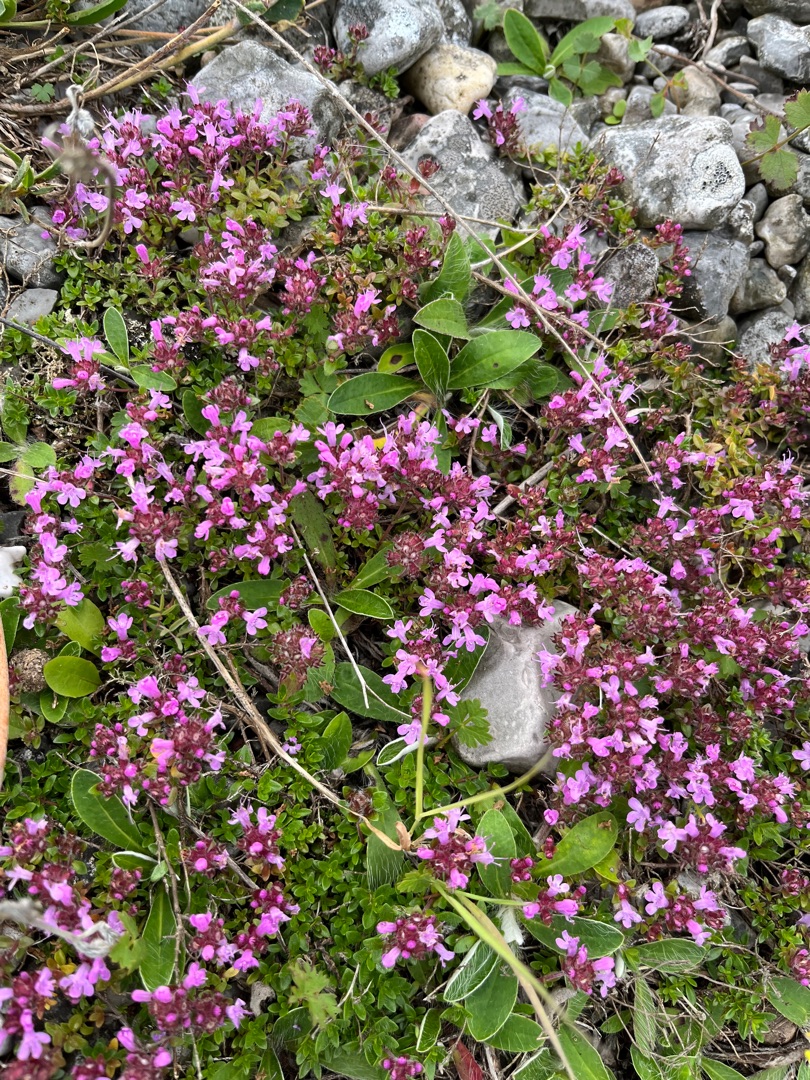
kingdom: Plantae
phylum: Tracheophyta
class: Magnoliopsida
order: Lamiales
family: Lamiaceae
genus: Thymus
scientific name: Thymus serpyllum
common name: Smalbladet timian
